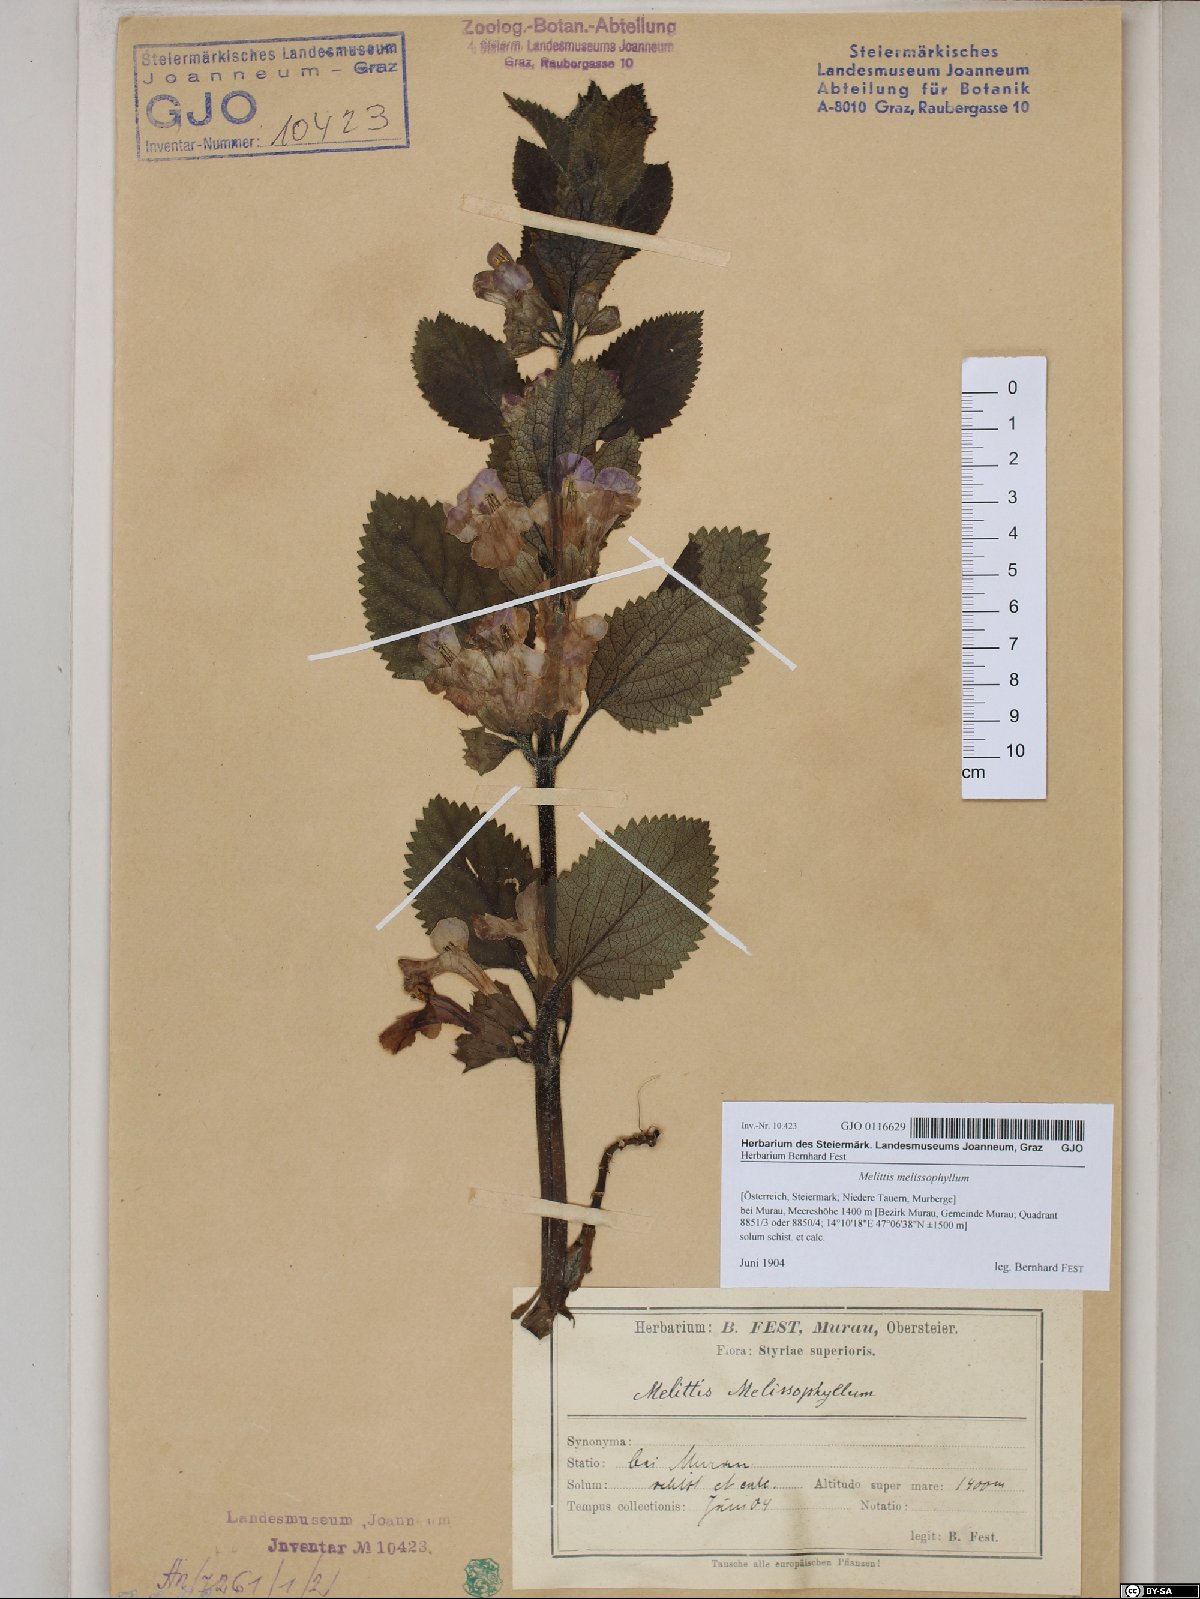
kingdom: Plantae
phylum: Tracheophyta
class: Magnoliopsida
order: Lamiales
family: Lamiaceae
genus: Melittis
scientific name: Melittis melissophyllum
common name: Bastard balm
